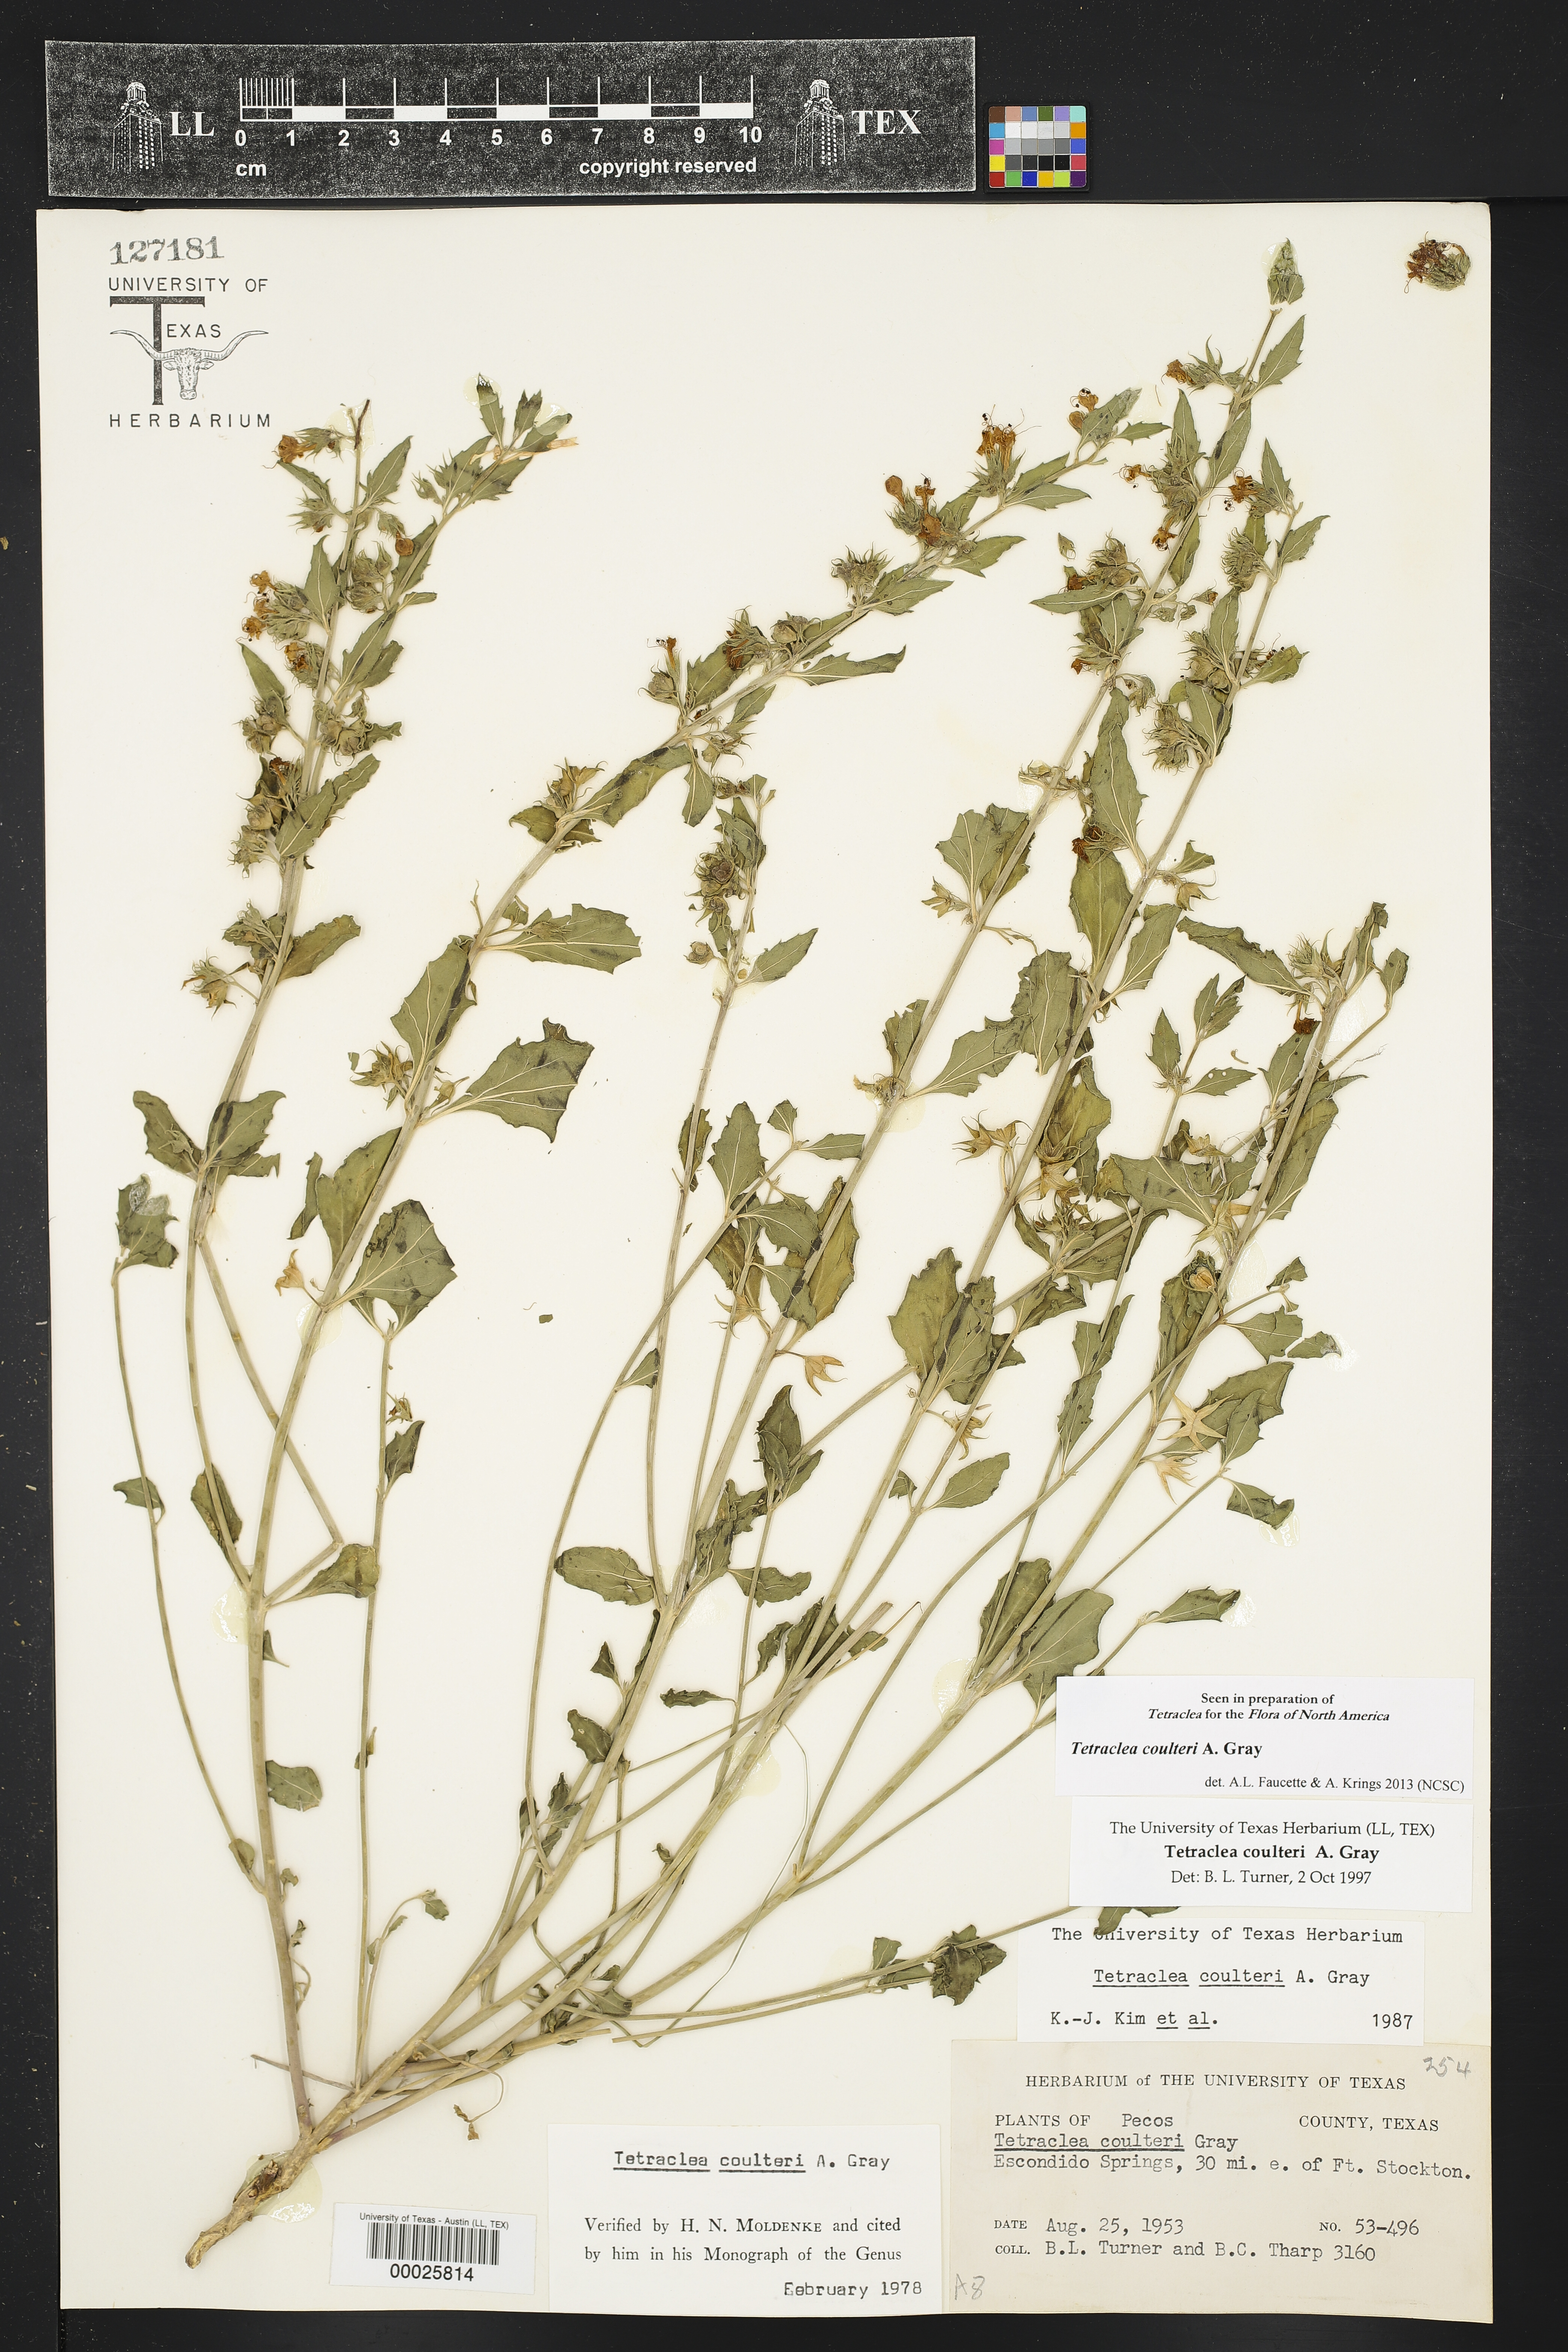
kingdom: Plantae
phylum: Tracheophyta
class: Magnoliopsida
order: Lamiales
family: Lamiaceae
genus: Tetraclea
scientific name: Tetraclea coulteri
